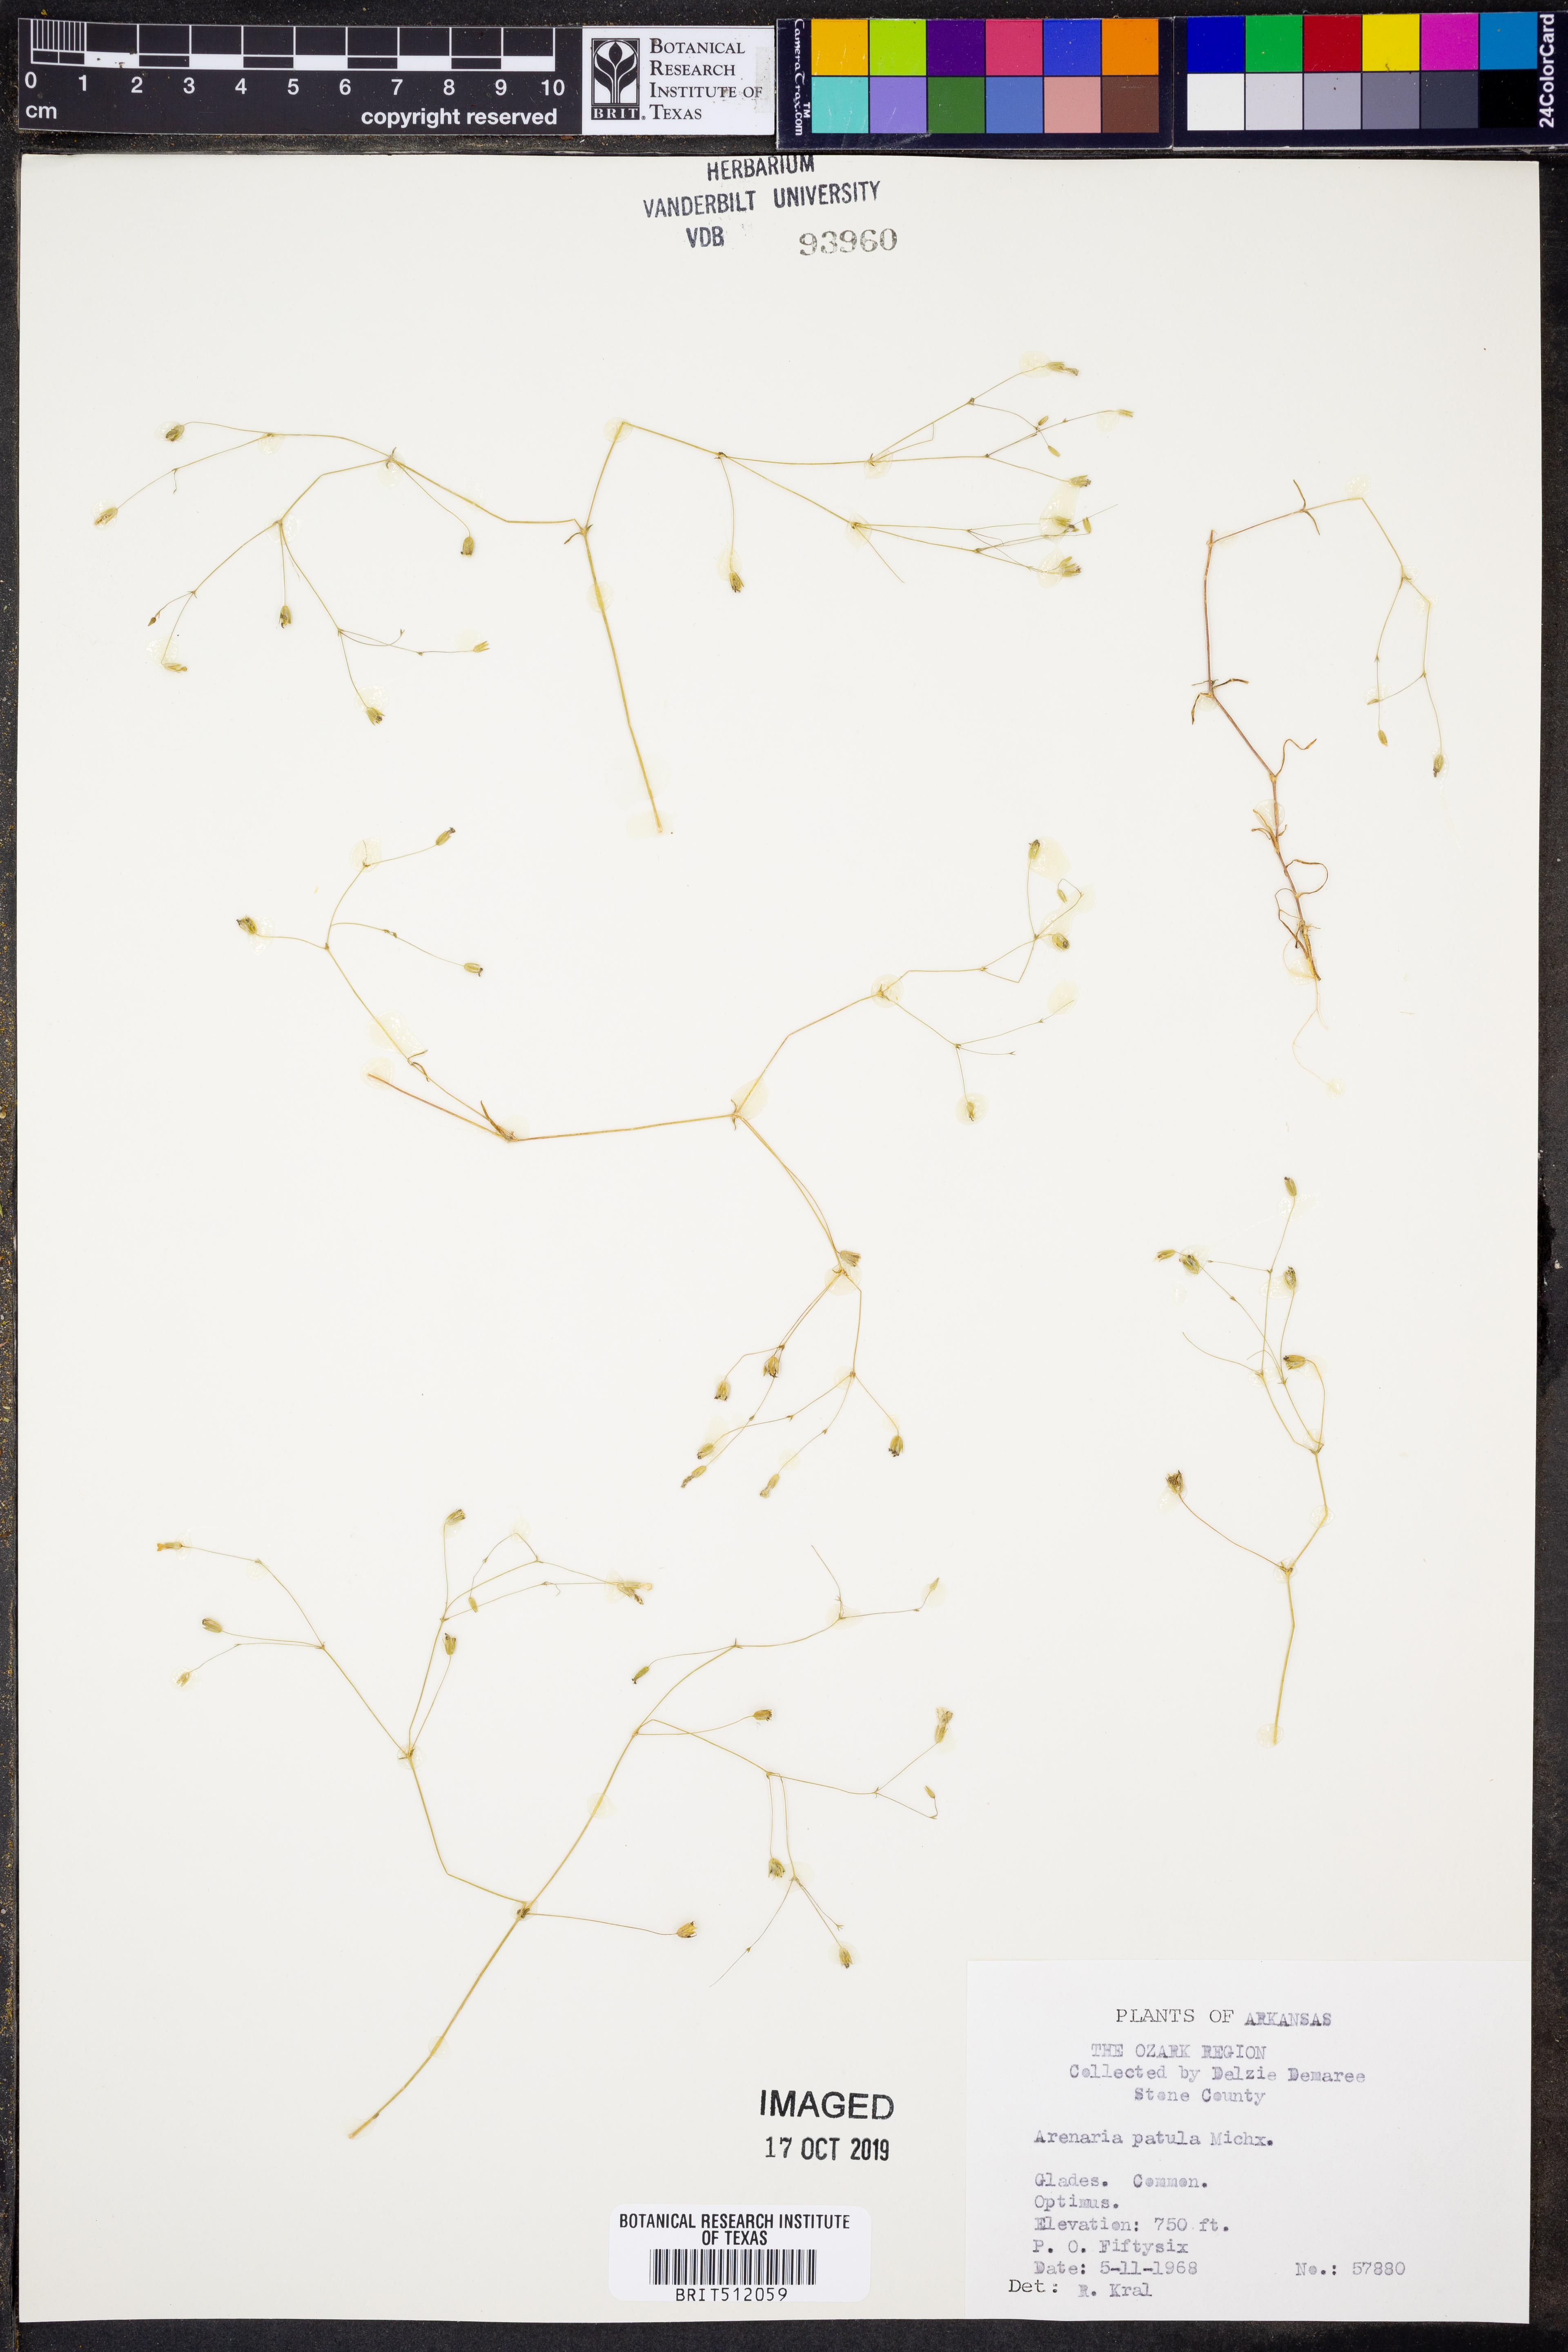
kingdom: Plantae
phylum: Tracheophyta
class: Magnoliopsida
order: Caryophyllales
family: Caryophyllaceae
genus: Mononeuria
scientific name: Mononeuria patula
